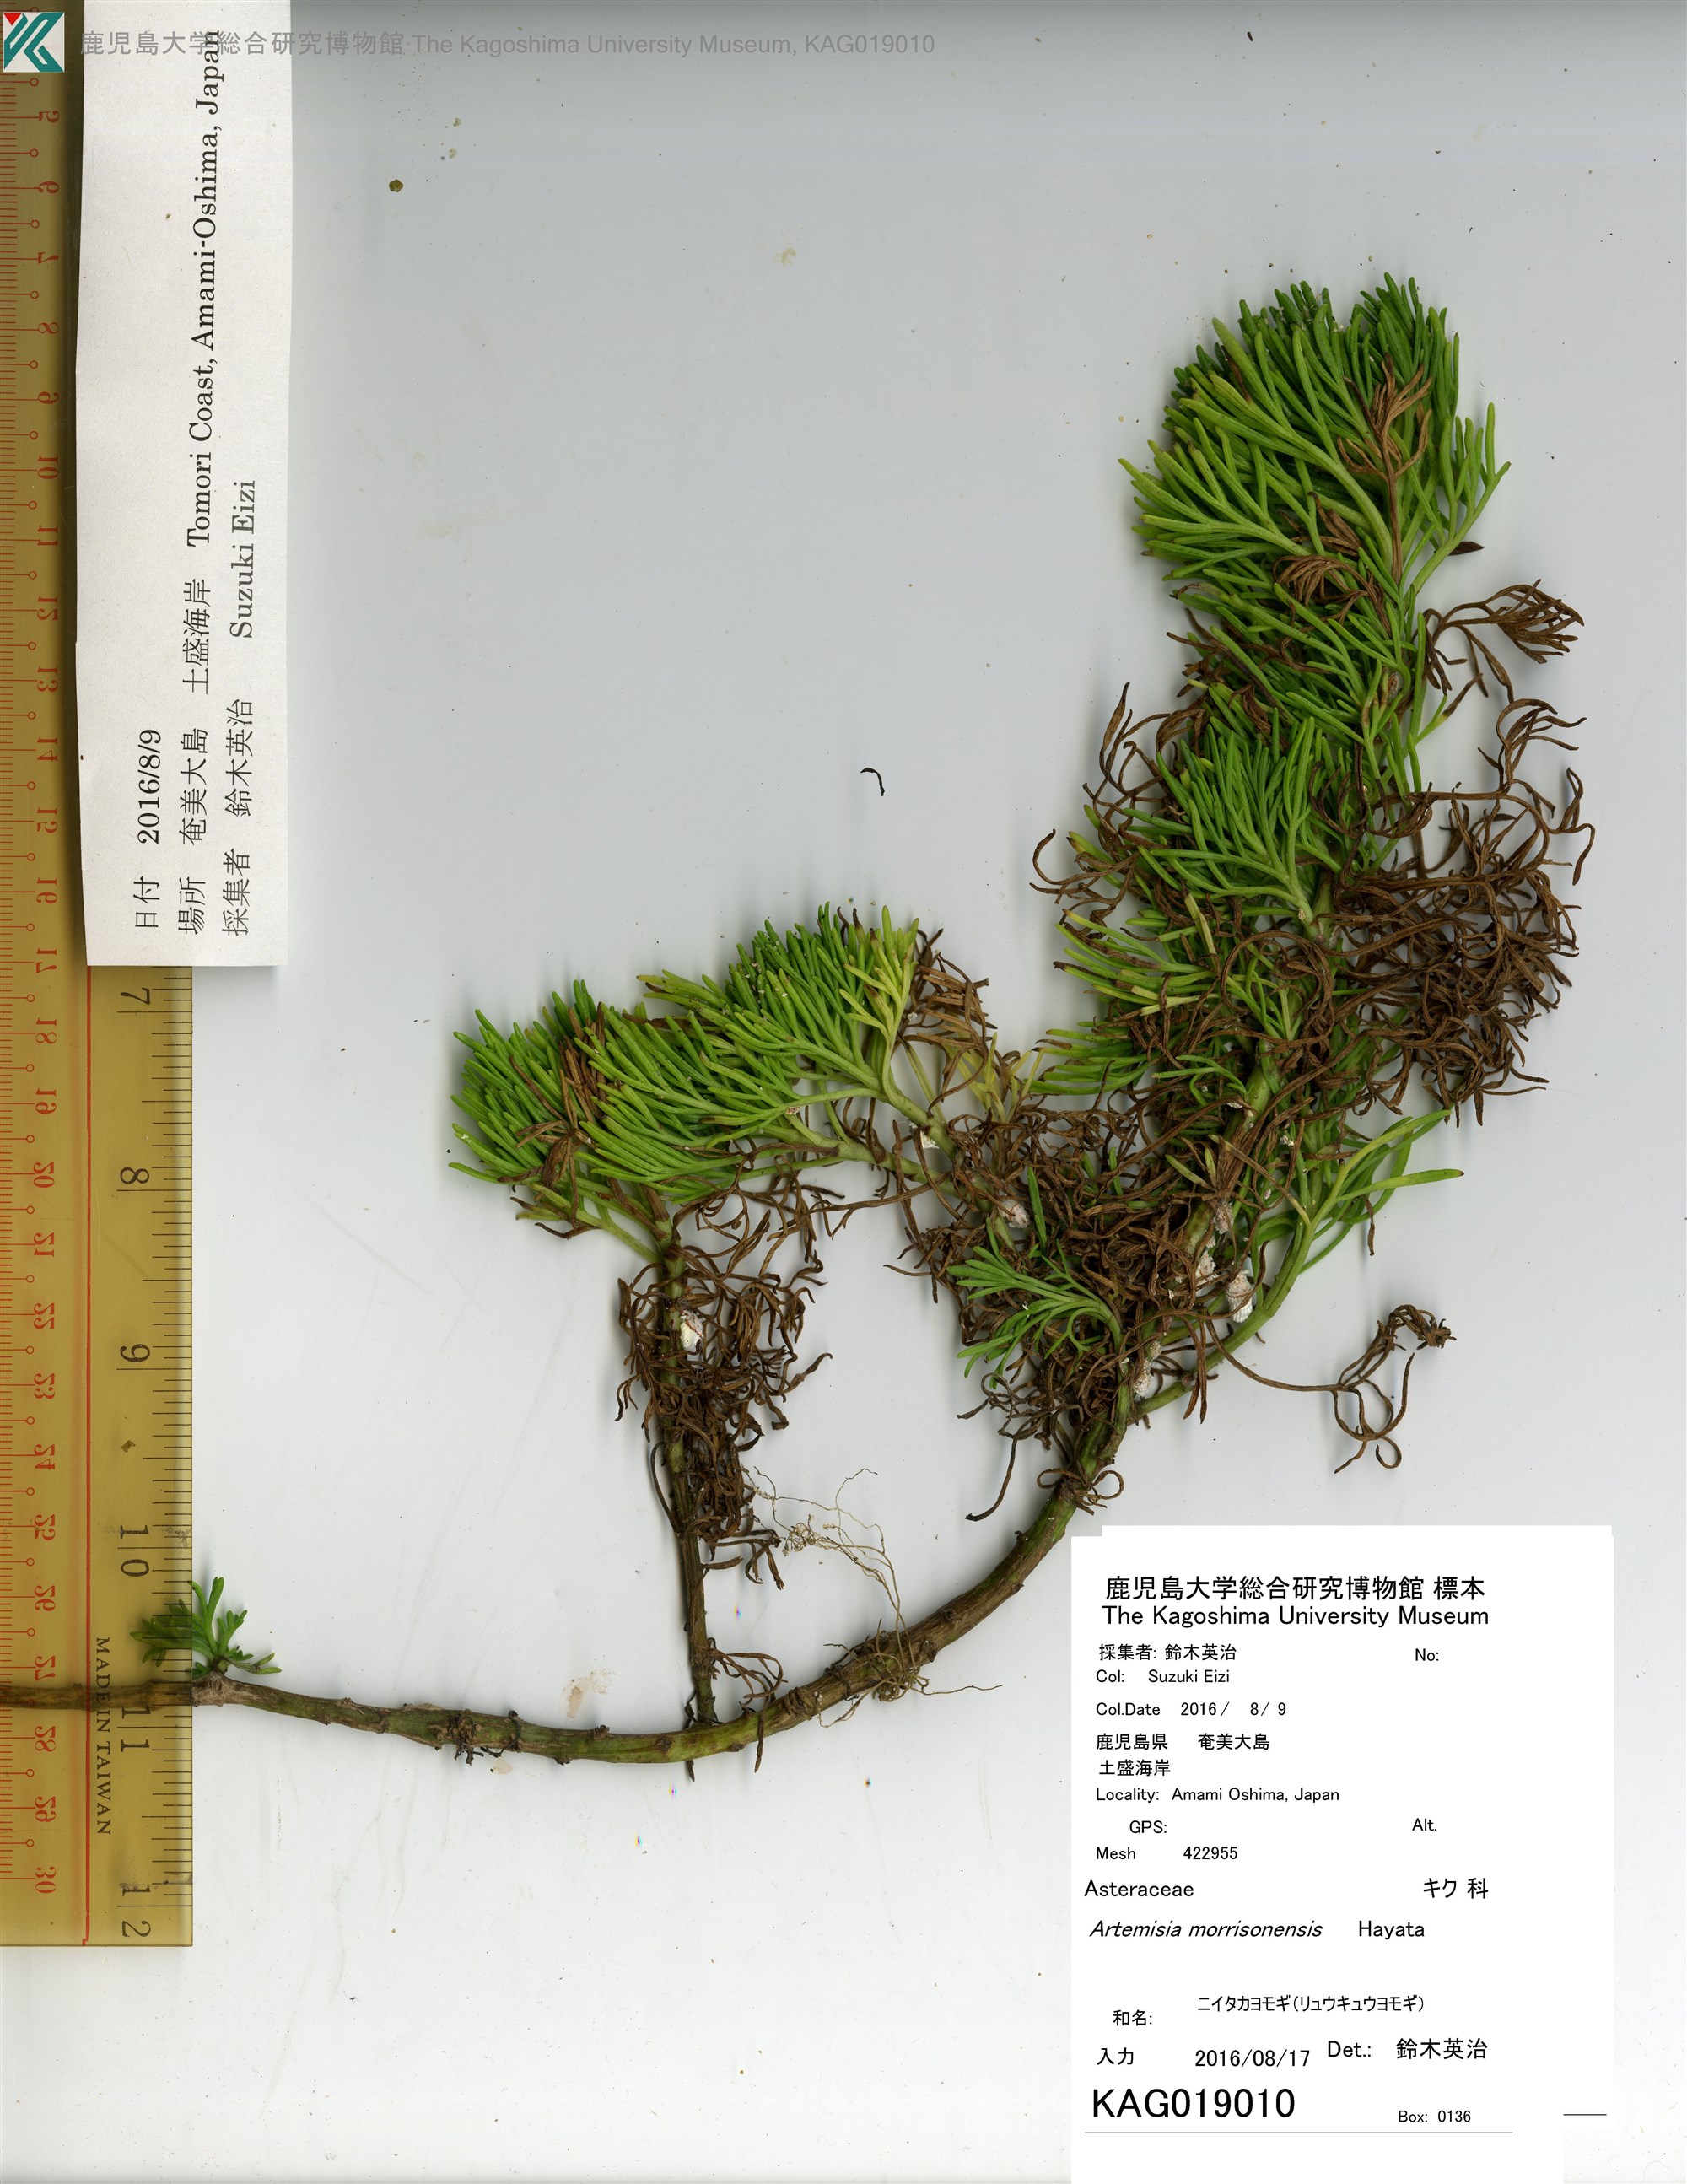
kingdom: Plantae
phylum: Tracheophyta
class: Magnoliopsida
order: Asterales
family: Asteraceae
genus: Artemisia
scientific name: Artemisia morrisonensis
